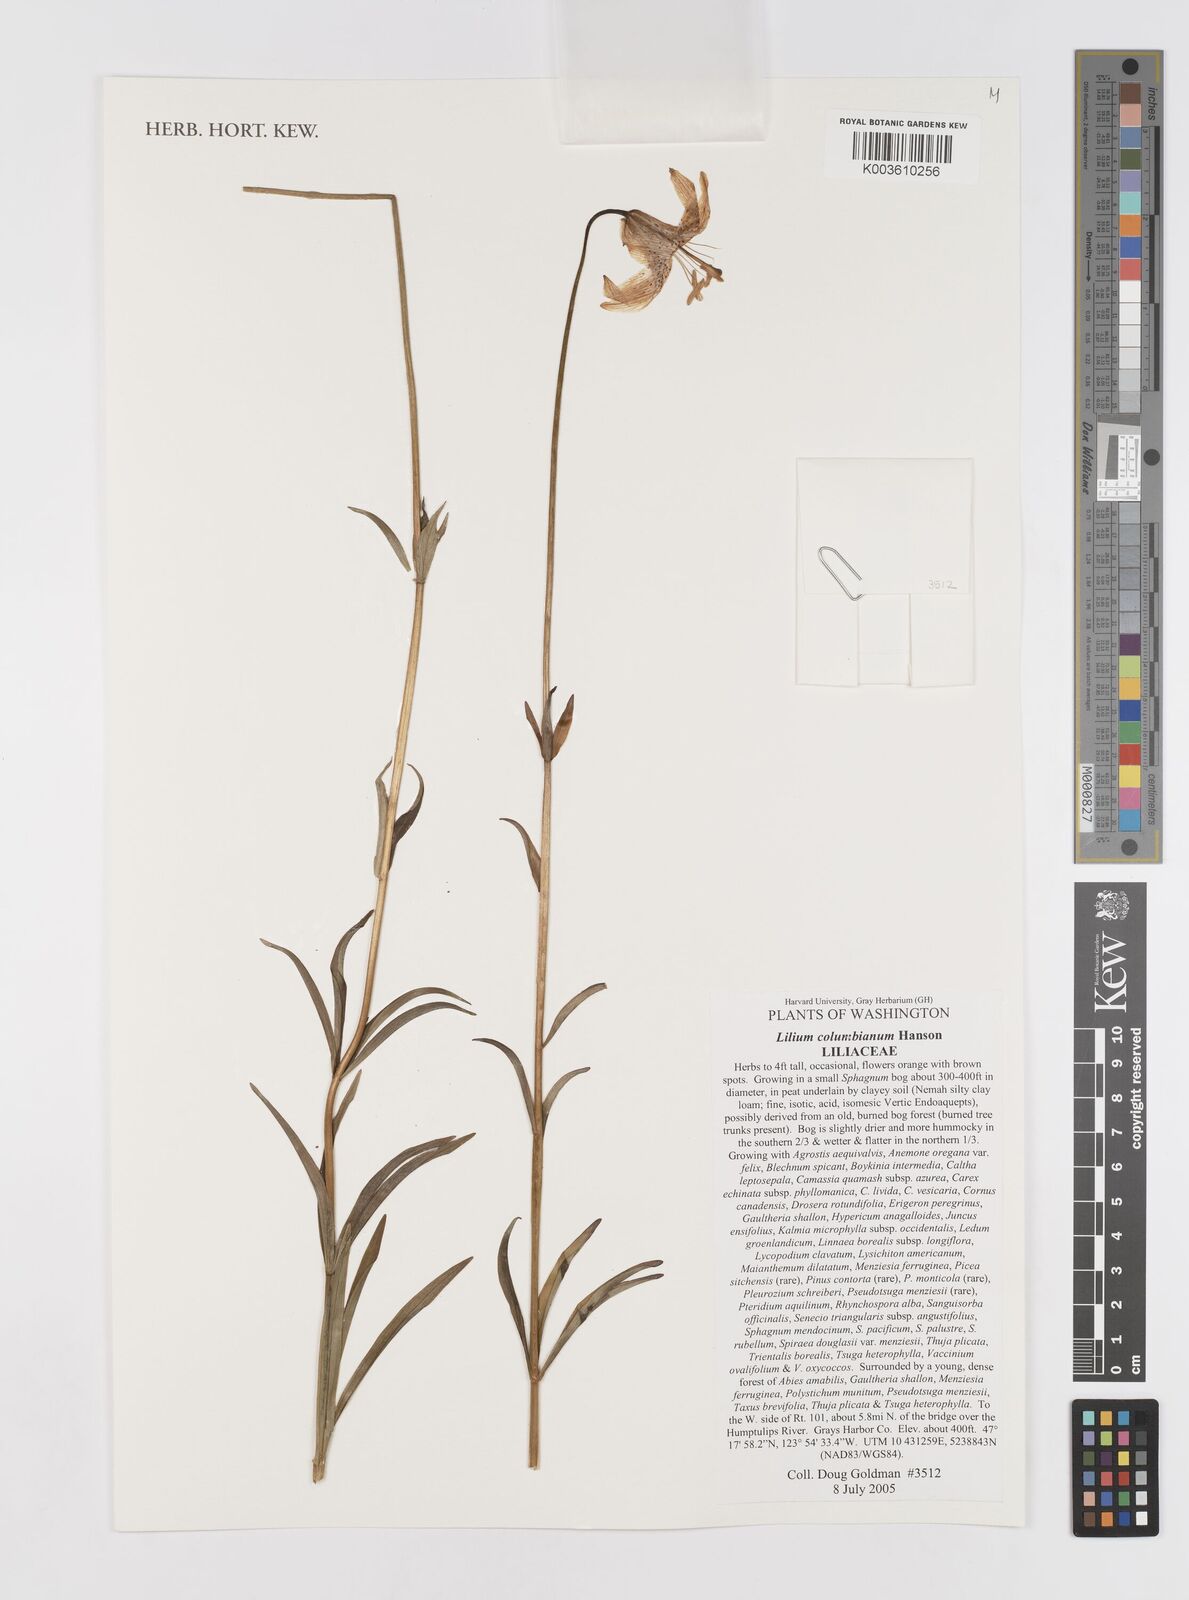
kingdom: Plantae
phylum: Tracheophyta
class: Liliopsida
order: Liliales
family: Liliaceae
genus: Lilium
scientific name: Lilium columbianum
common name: Columbia lily
